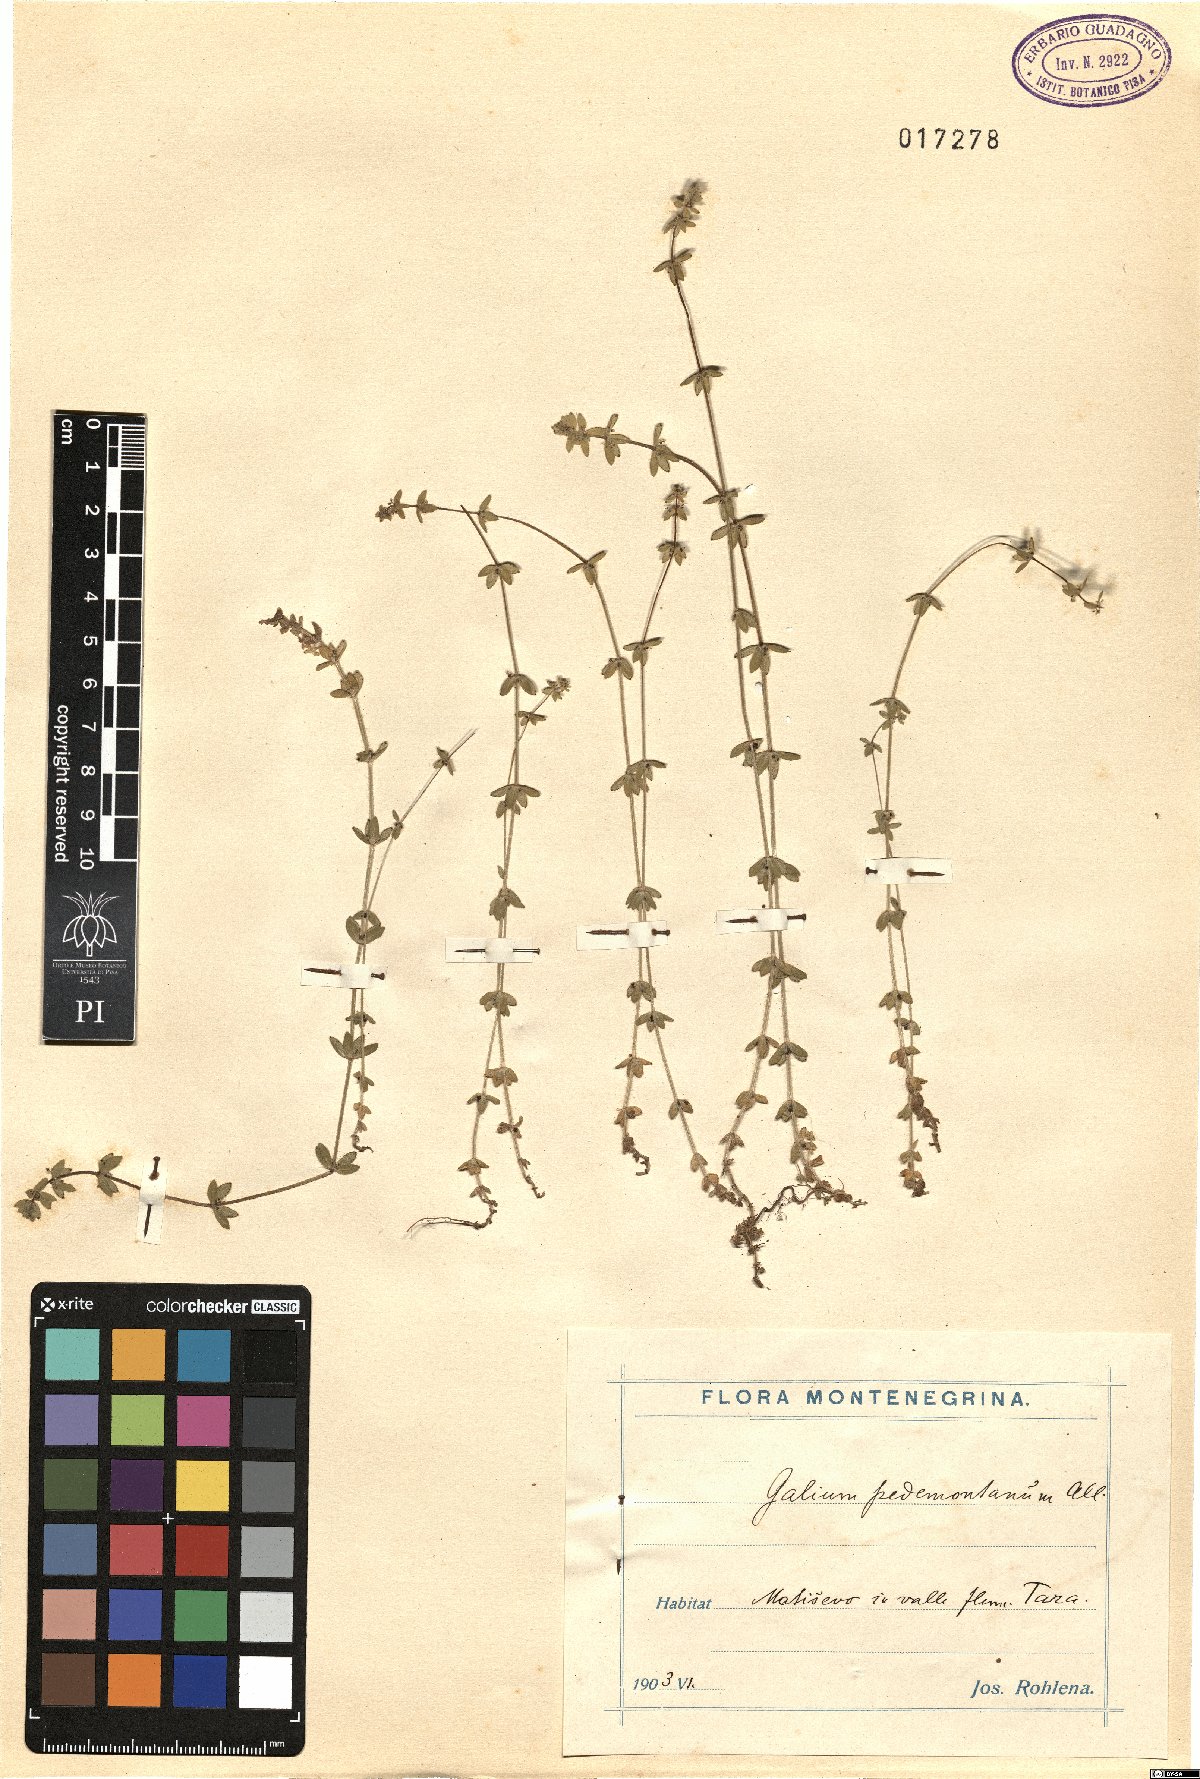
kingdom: Plantae
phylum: Tracheophyta
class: Magnoliopsida
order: Gentianales
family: Rubiaceae
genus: Cruciata
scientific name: Cruciata pedemontana
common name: Piedmont bedstraw
